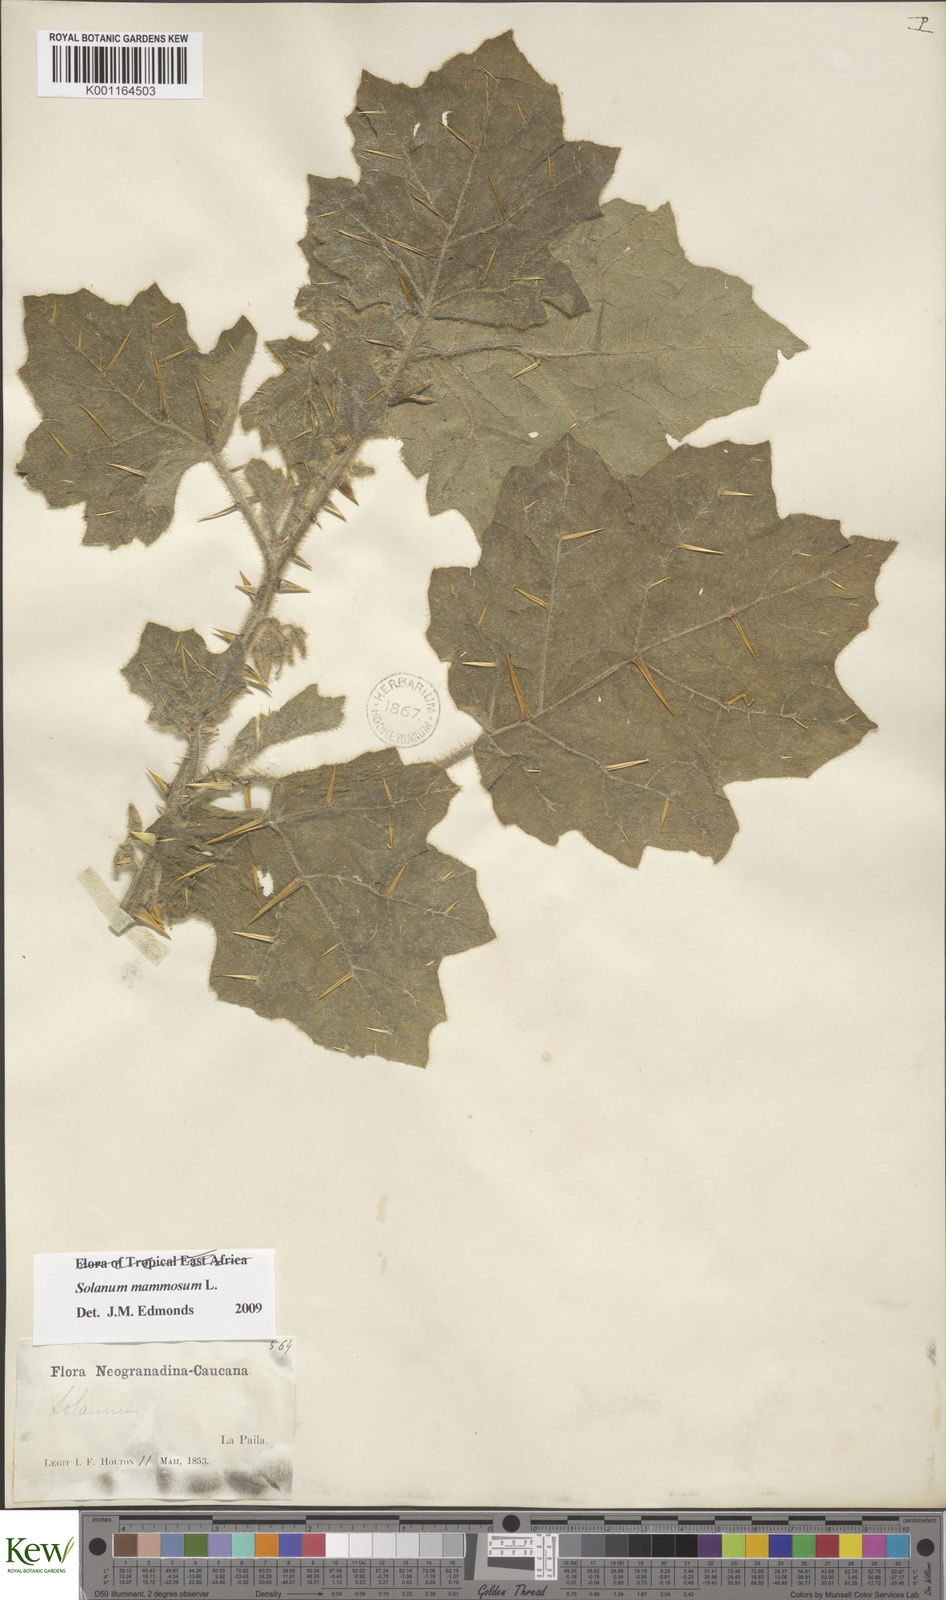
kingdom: Plantae
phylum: Tracheophyta
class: Magnoliopsida
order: Solanales
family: Solanaceae
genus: Solanum
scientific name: Solanum mammosum
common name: Nipple fruit
